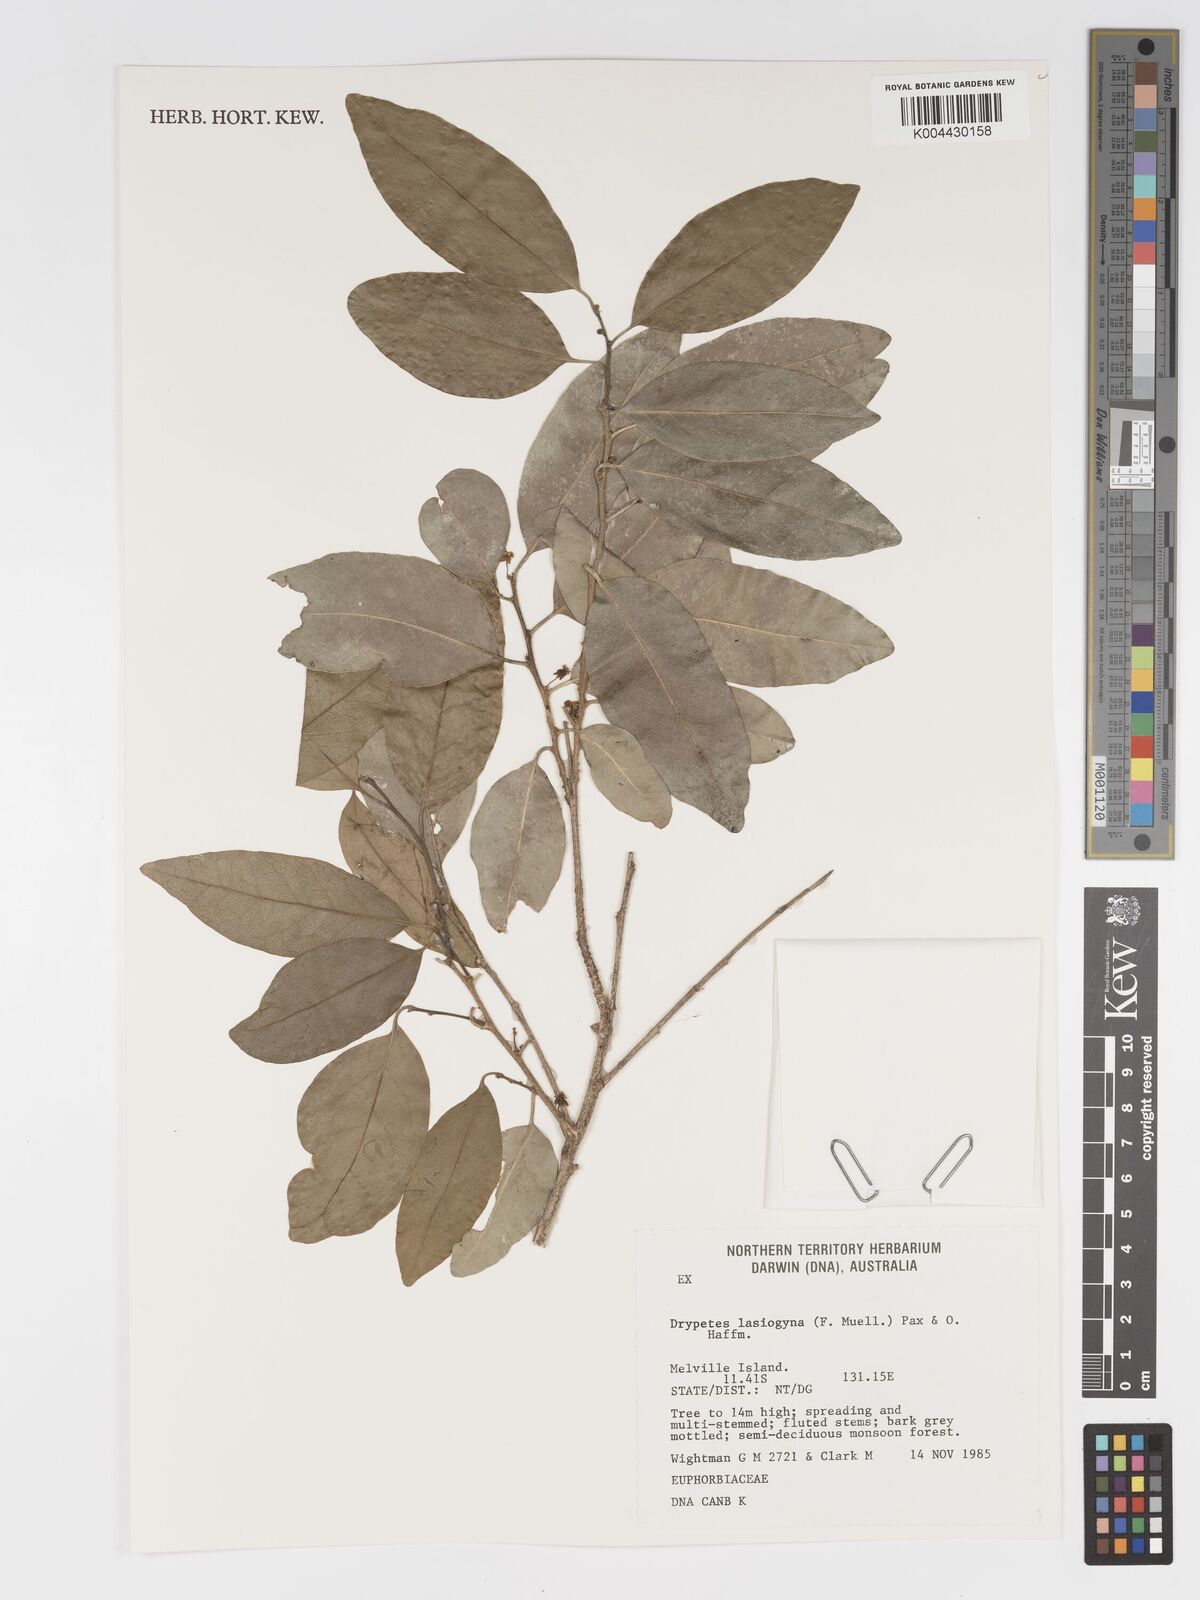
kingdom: Plantae
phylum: Tracheophyta
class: Magnoliopsida
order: Malpighiales
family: Putranjivaceae
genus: Drypetes
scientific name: Drypetes deplanchei
